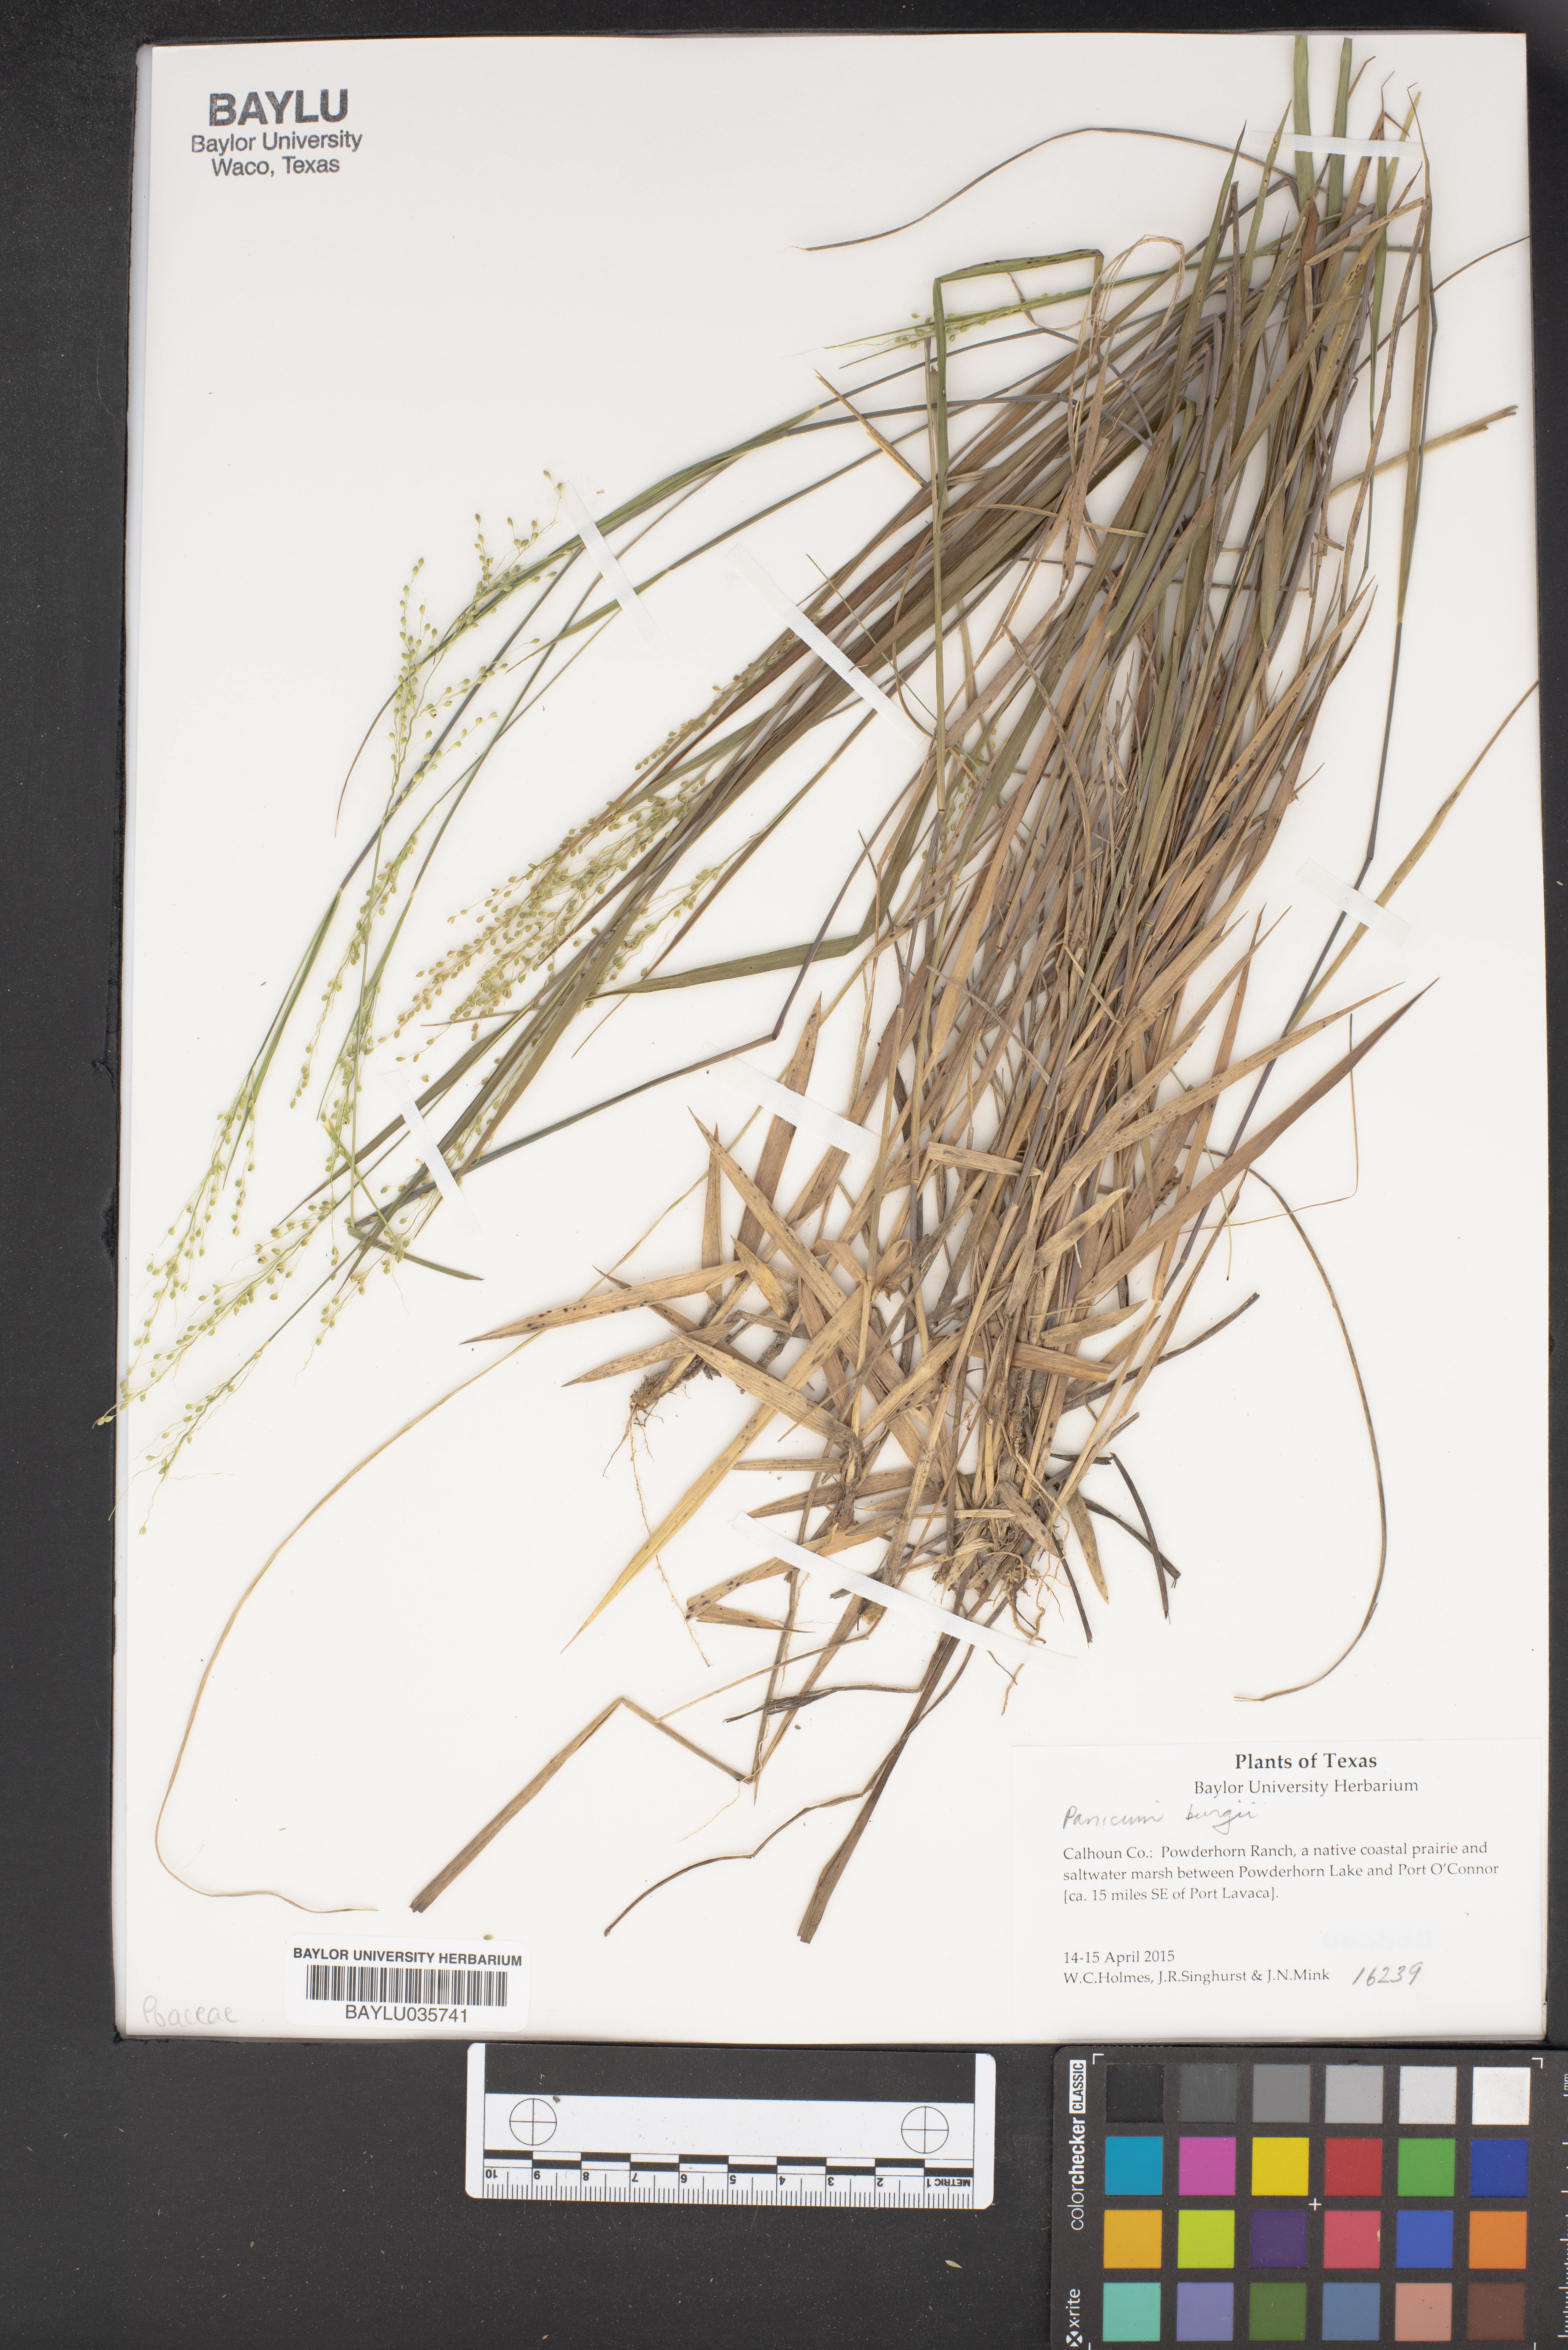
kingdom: Plantae
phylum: Tracheophyta
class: Liliopsida
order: Poales
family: Poaceae
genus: Panicum
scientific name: Panicum bergii
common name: Berg's panicgrass
